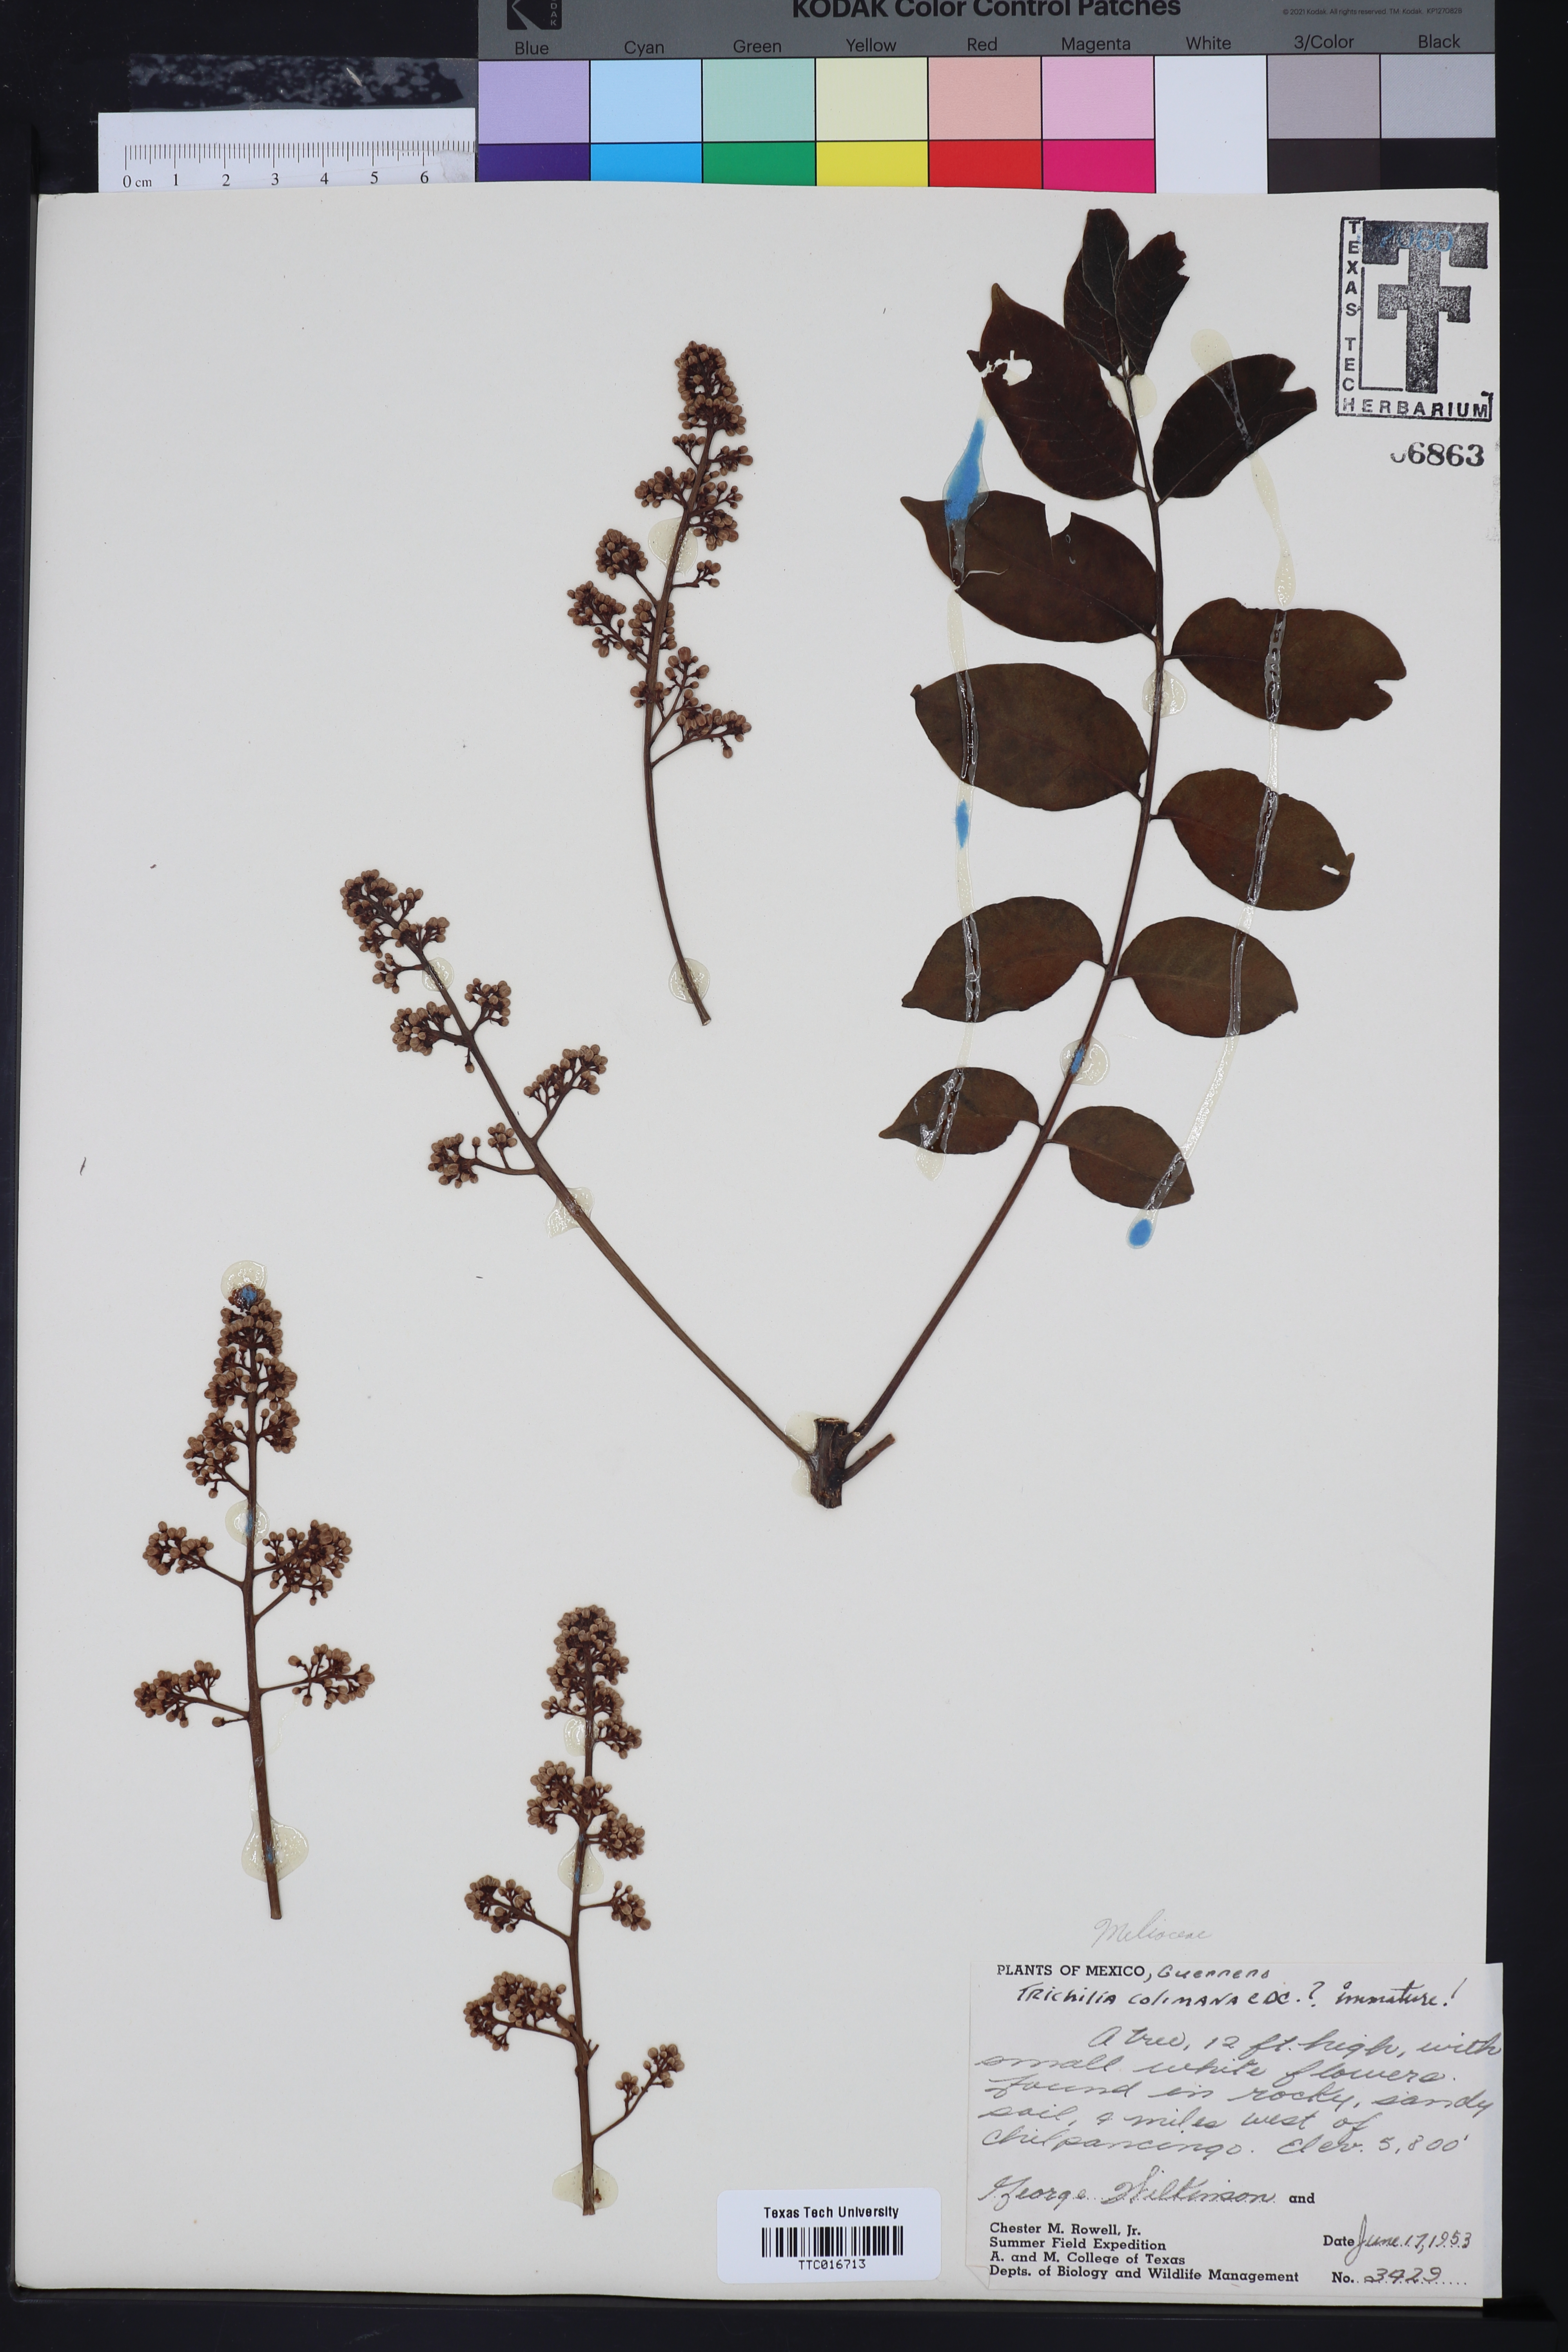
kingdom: Plantae
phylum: Tracheophyta
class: Magnoliopsida
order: Sapindales
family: Meliaceae
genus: Trichilia
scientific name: Trichilia americana
